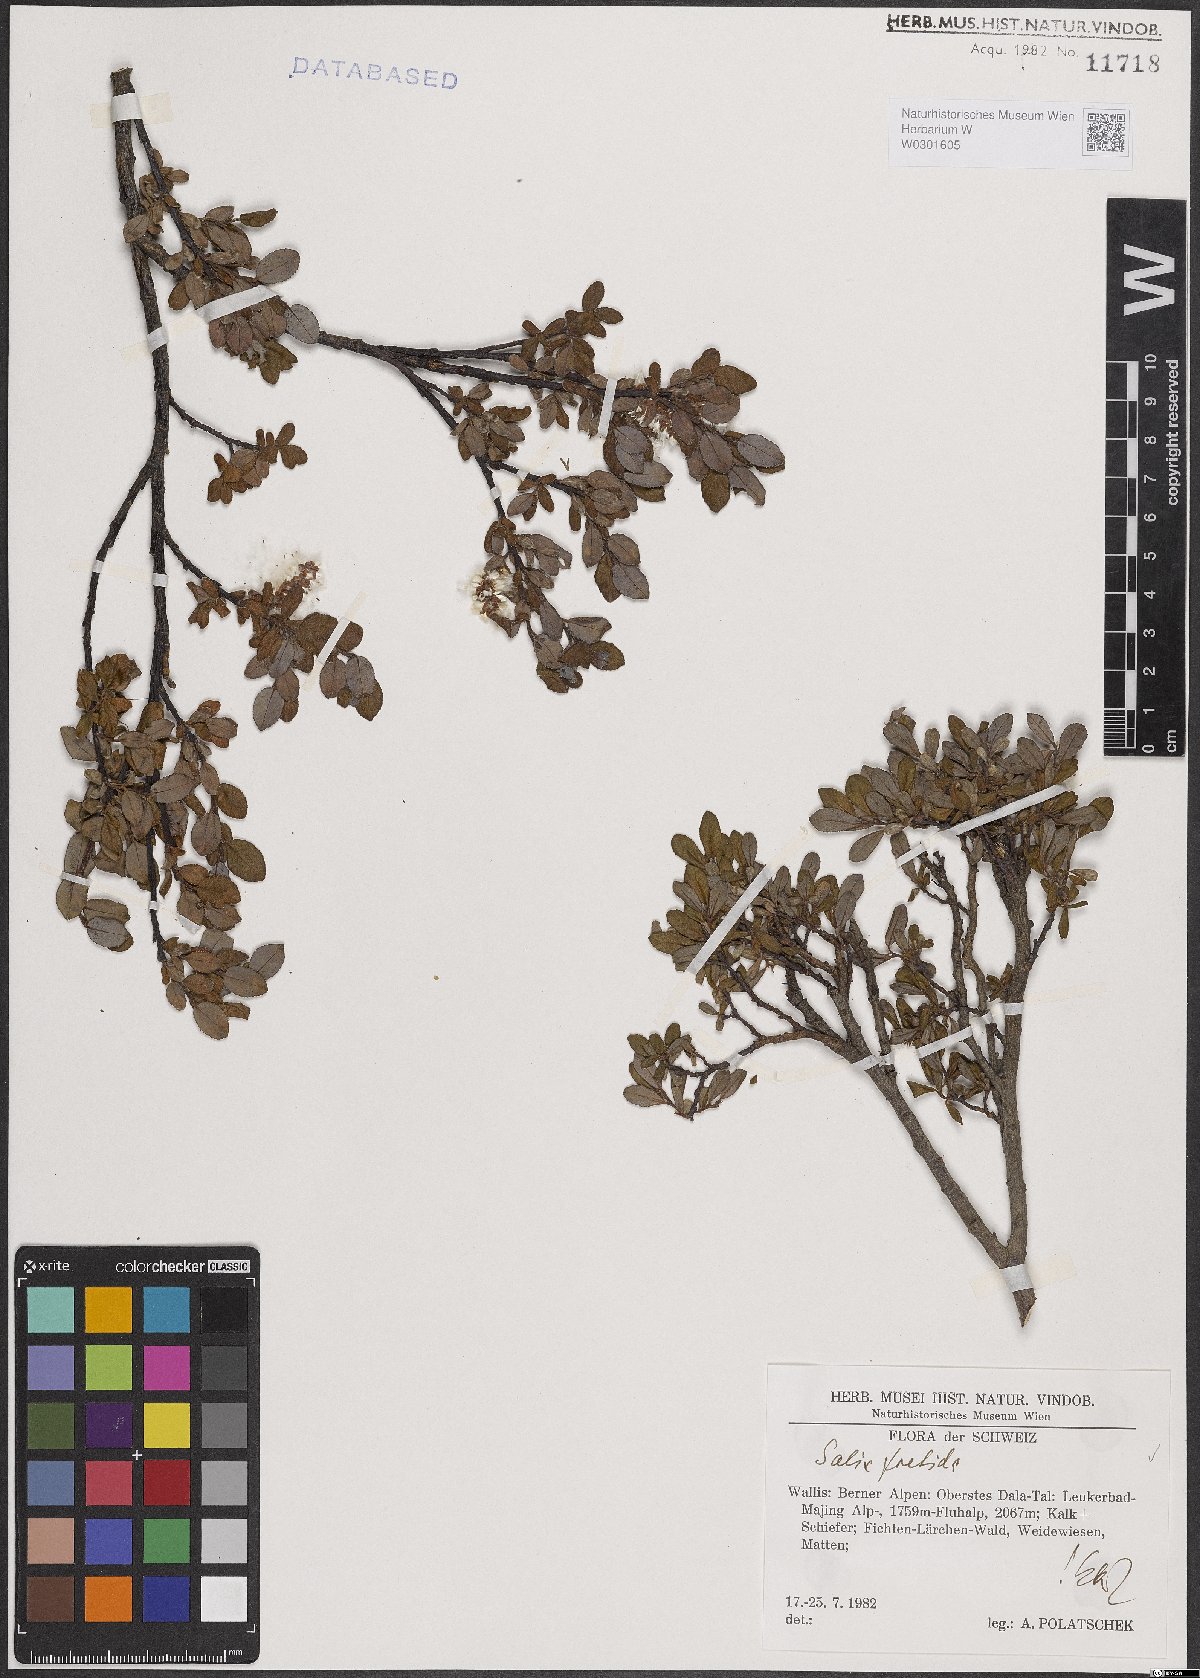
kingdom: Plantae
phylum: Tracheophyta
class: Magnoliopsida
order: Malpighiales
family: Salicaceae
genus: Salix
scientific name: Salix foetida
